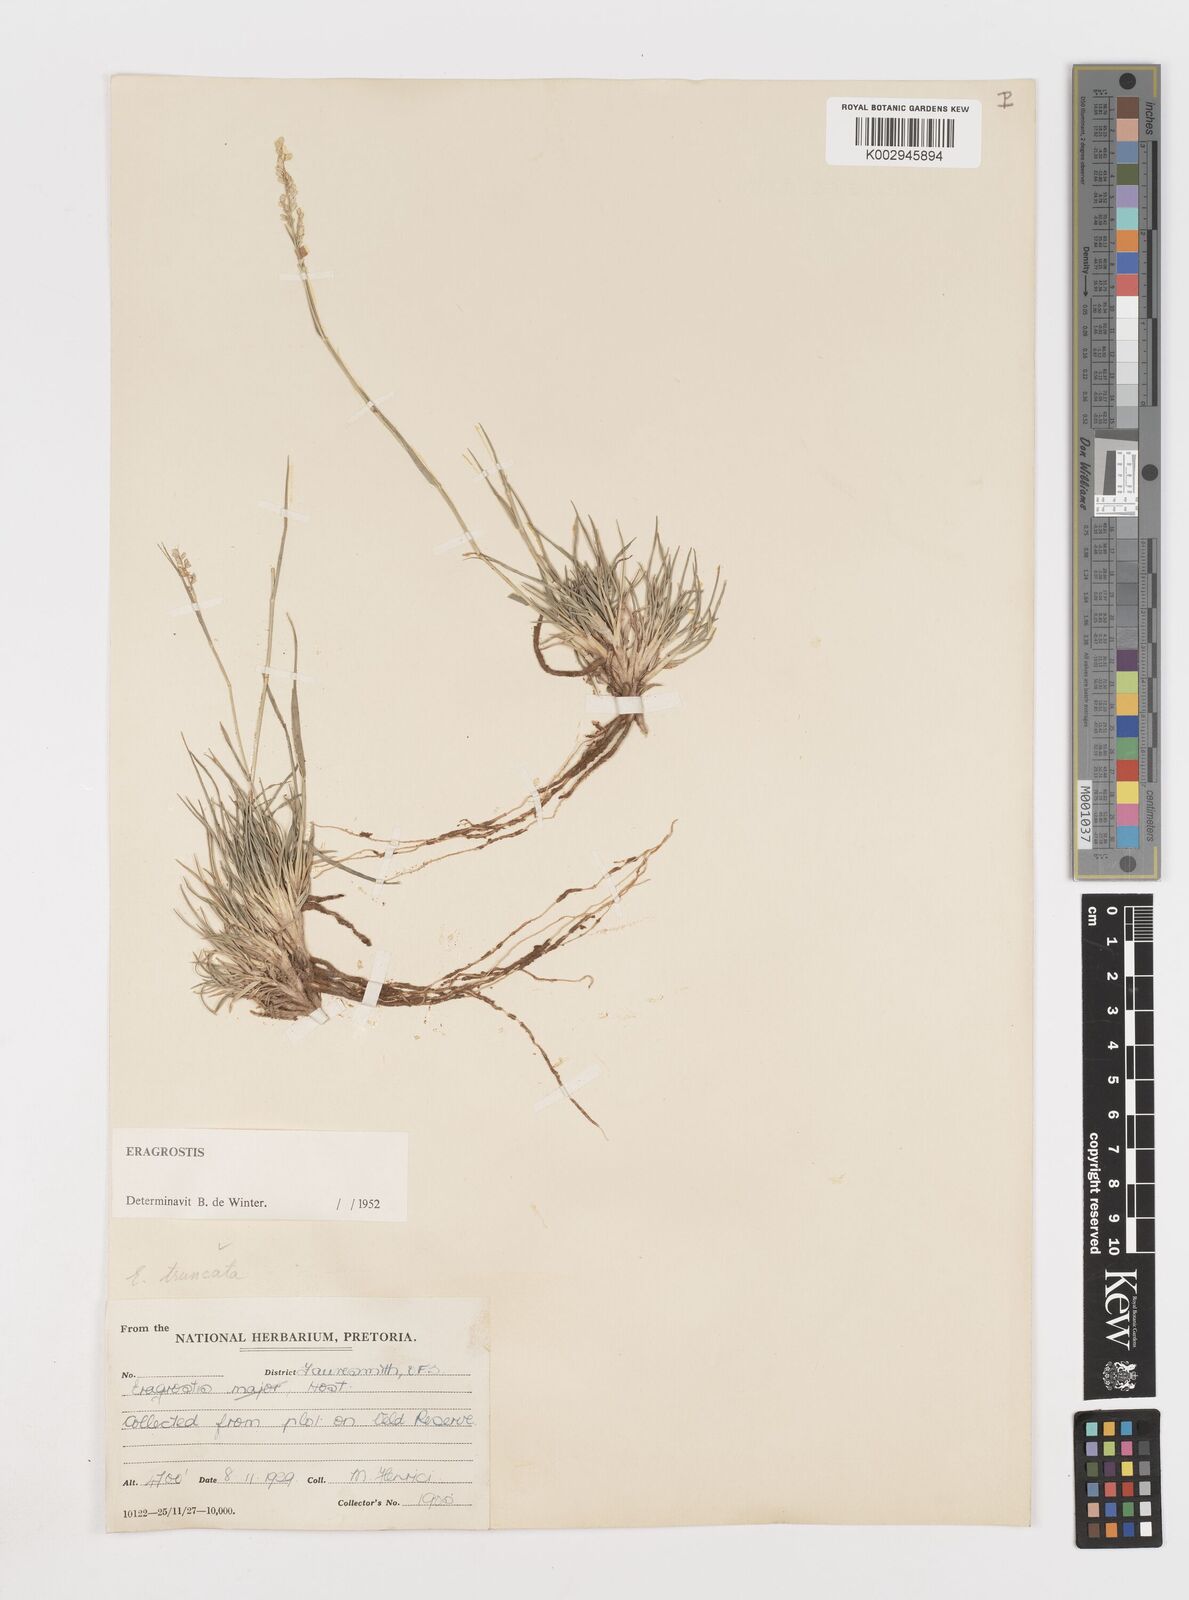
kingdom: Plantae
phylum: Tracheophyta
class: Liliopsida
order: Poales
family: Poaceae
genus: Eragrostis
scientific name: Eragrostis truncata
